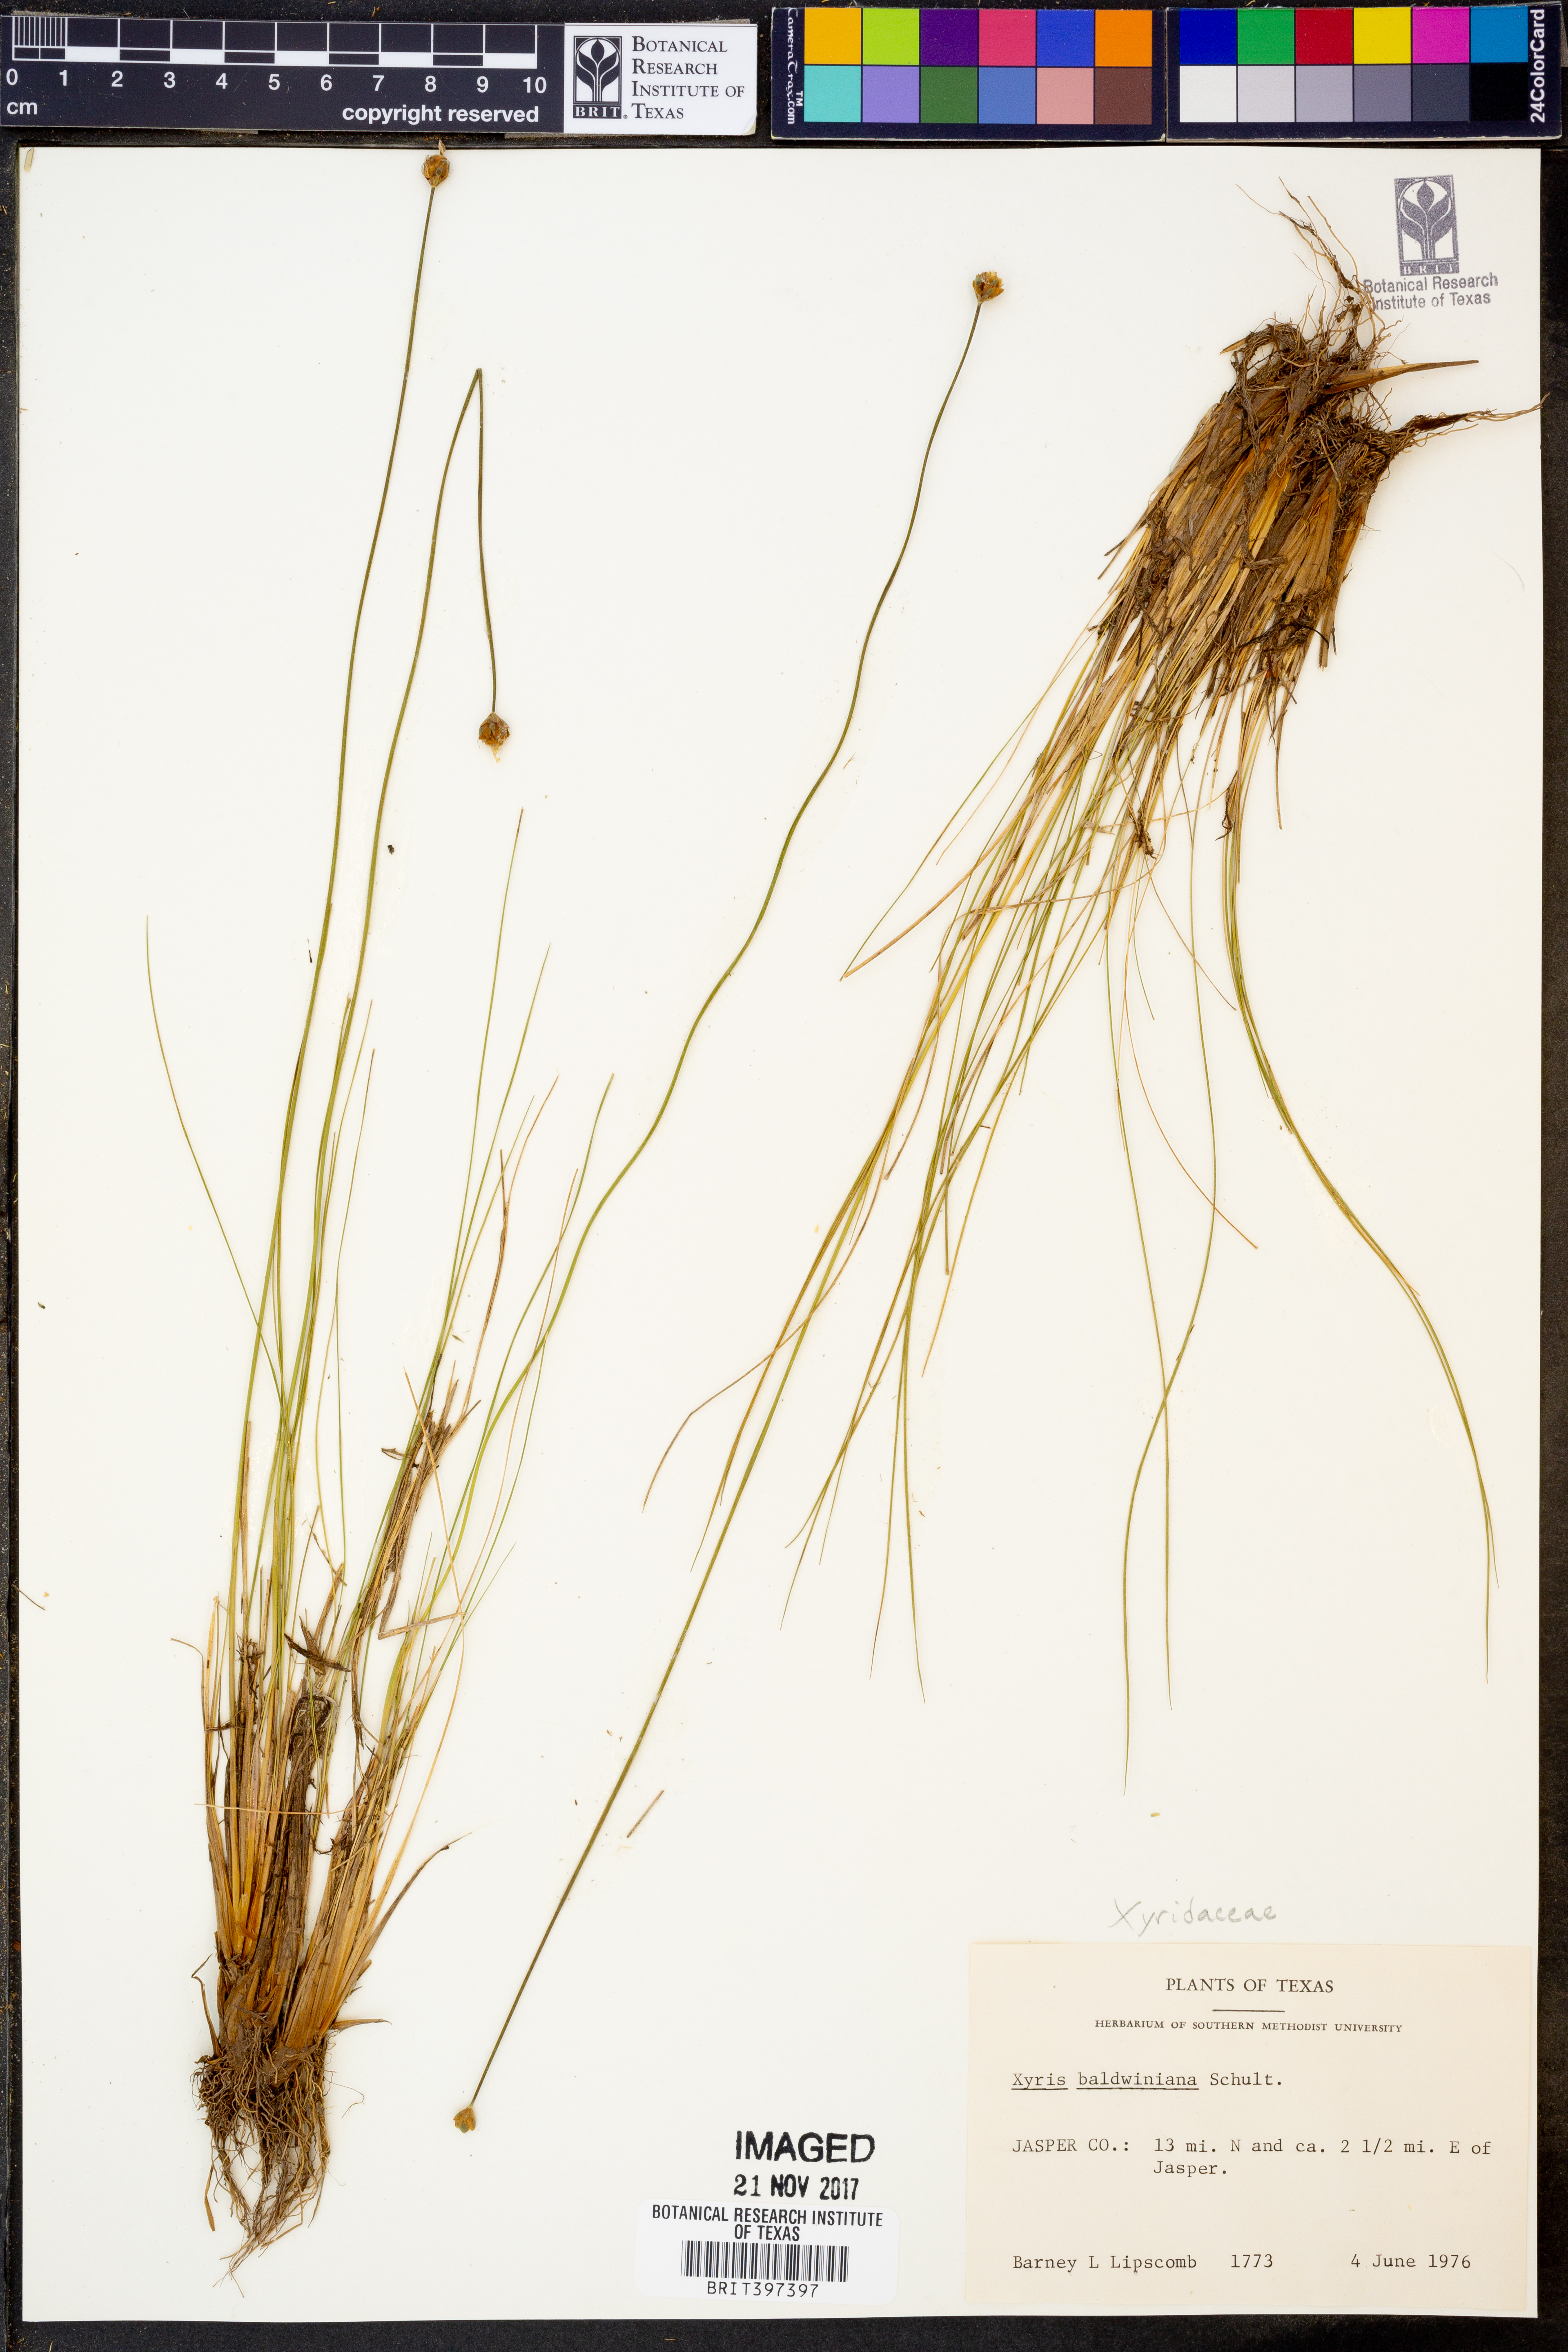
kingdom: Plantae
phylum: Tracheophyta
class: Liliopsida
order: Poales
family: Xyridaceae
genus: Xyris
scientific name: Xyris baldwiniana
